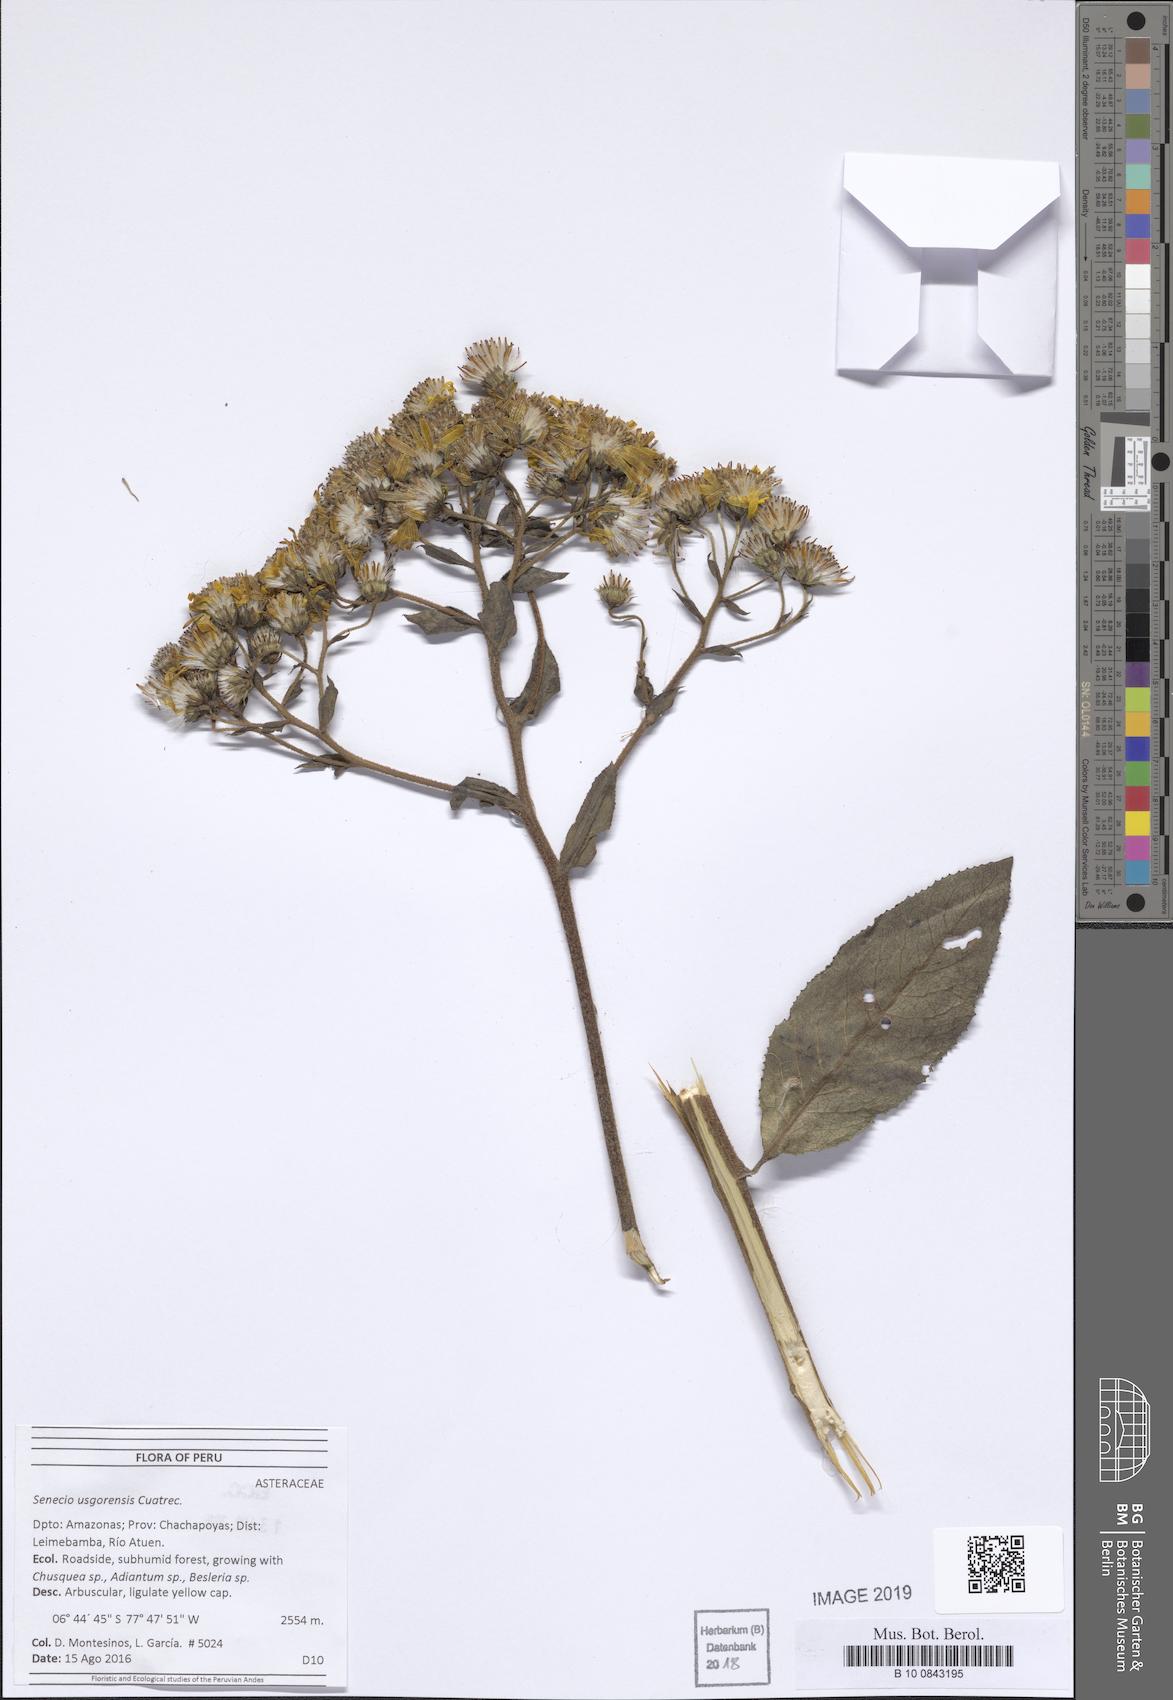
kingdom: Plantae
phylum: Tracheophyta
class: Magnoliopsida
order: Asterales
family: Asteraceae
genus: Dendrophorbium
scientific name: Dendrophorbium elatum
